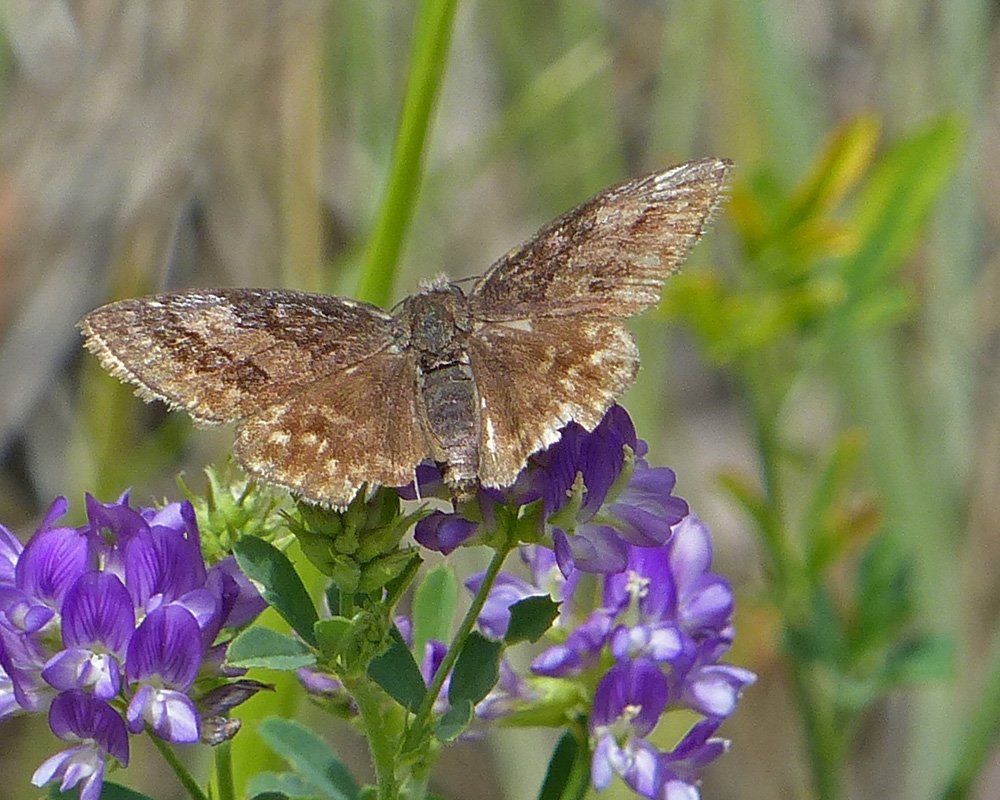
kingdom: Animalia
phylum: Arthropoda
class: Insecta
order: Lepidoptera
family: Hesperiidae
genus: Erynnis
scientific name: Erynnis icelus
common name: Dreamy Duskywing
